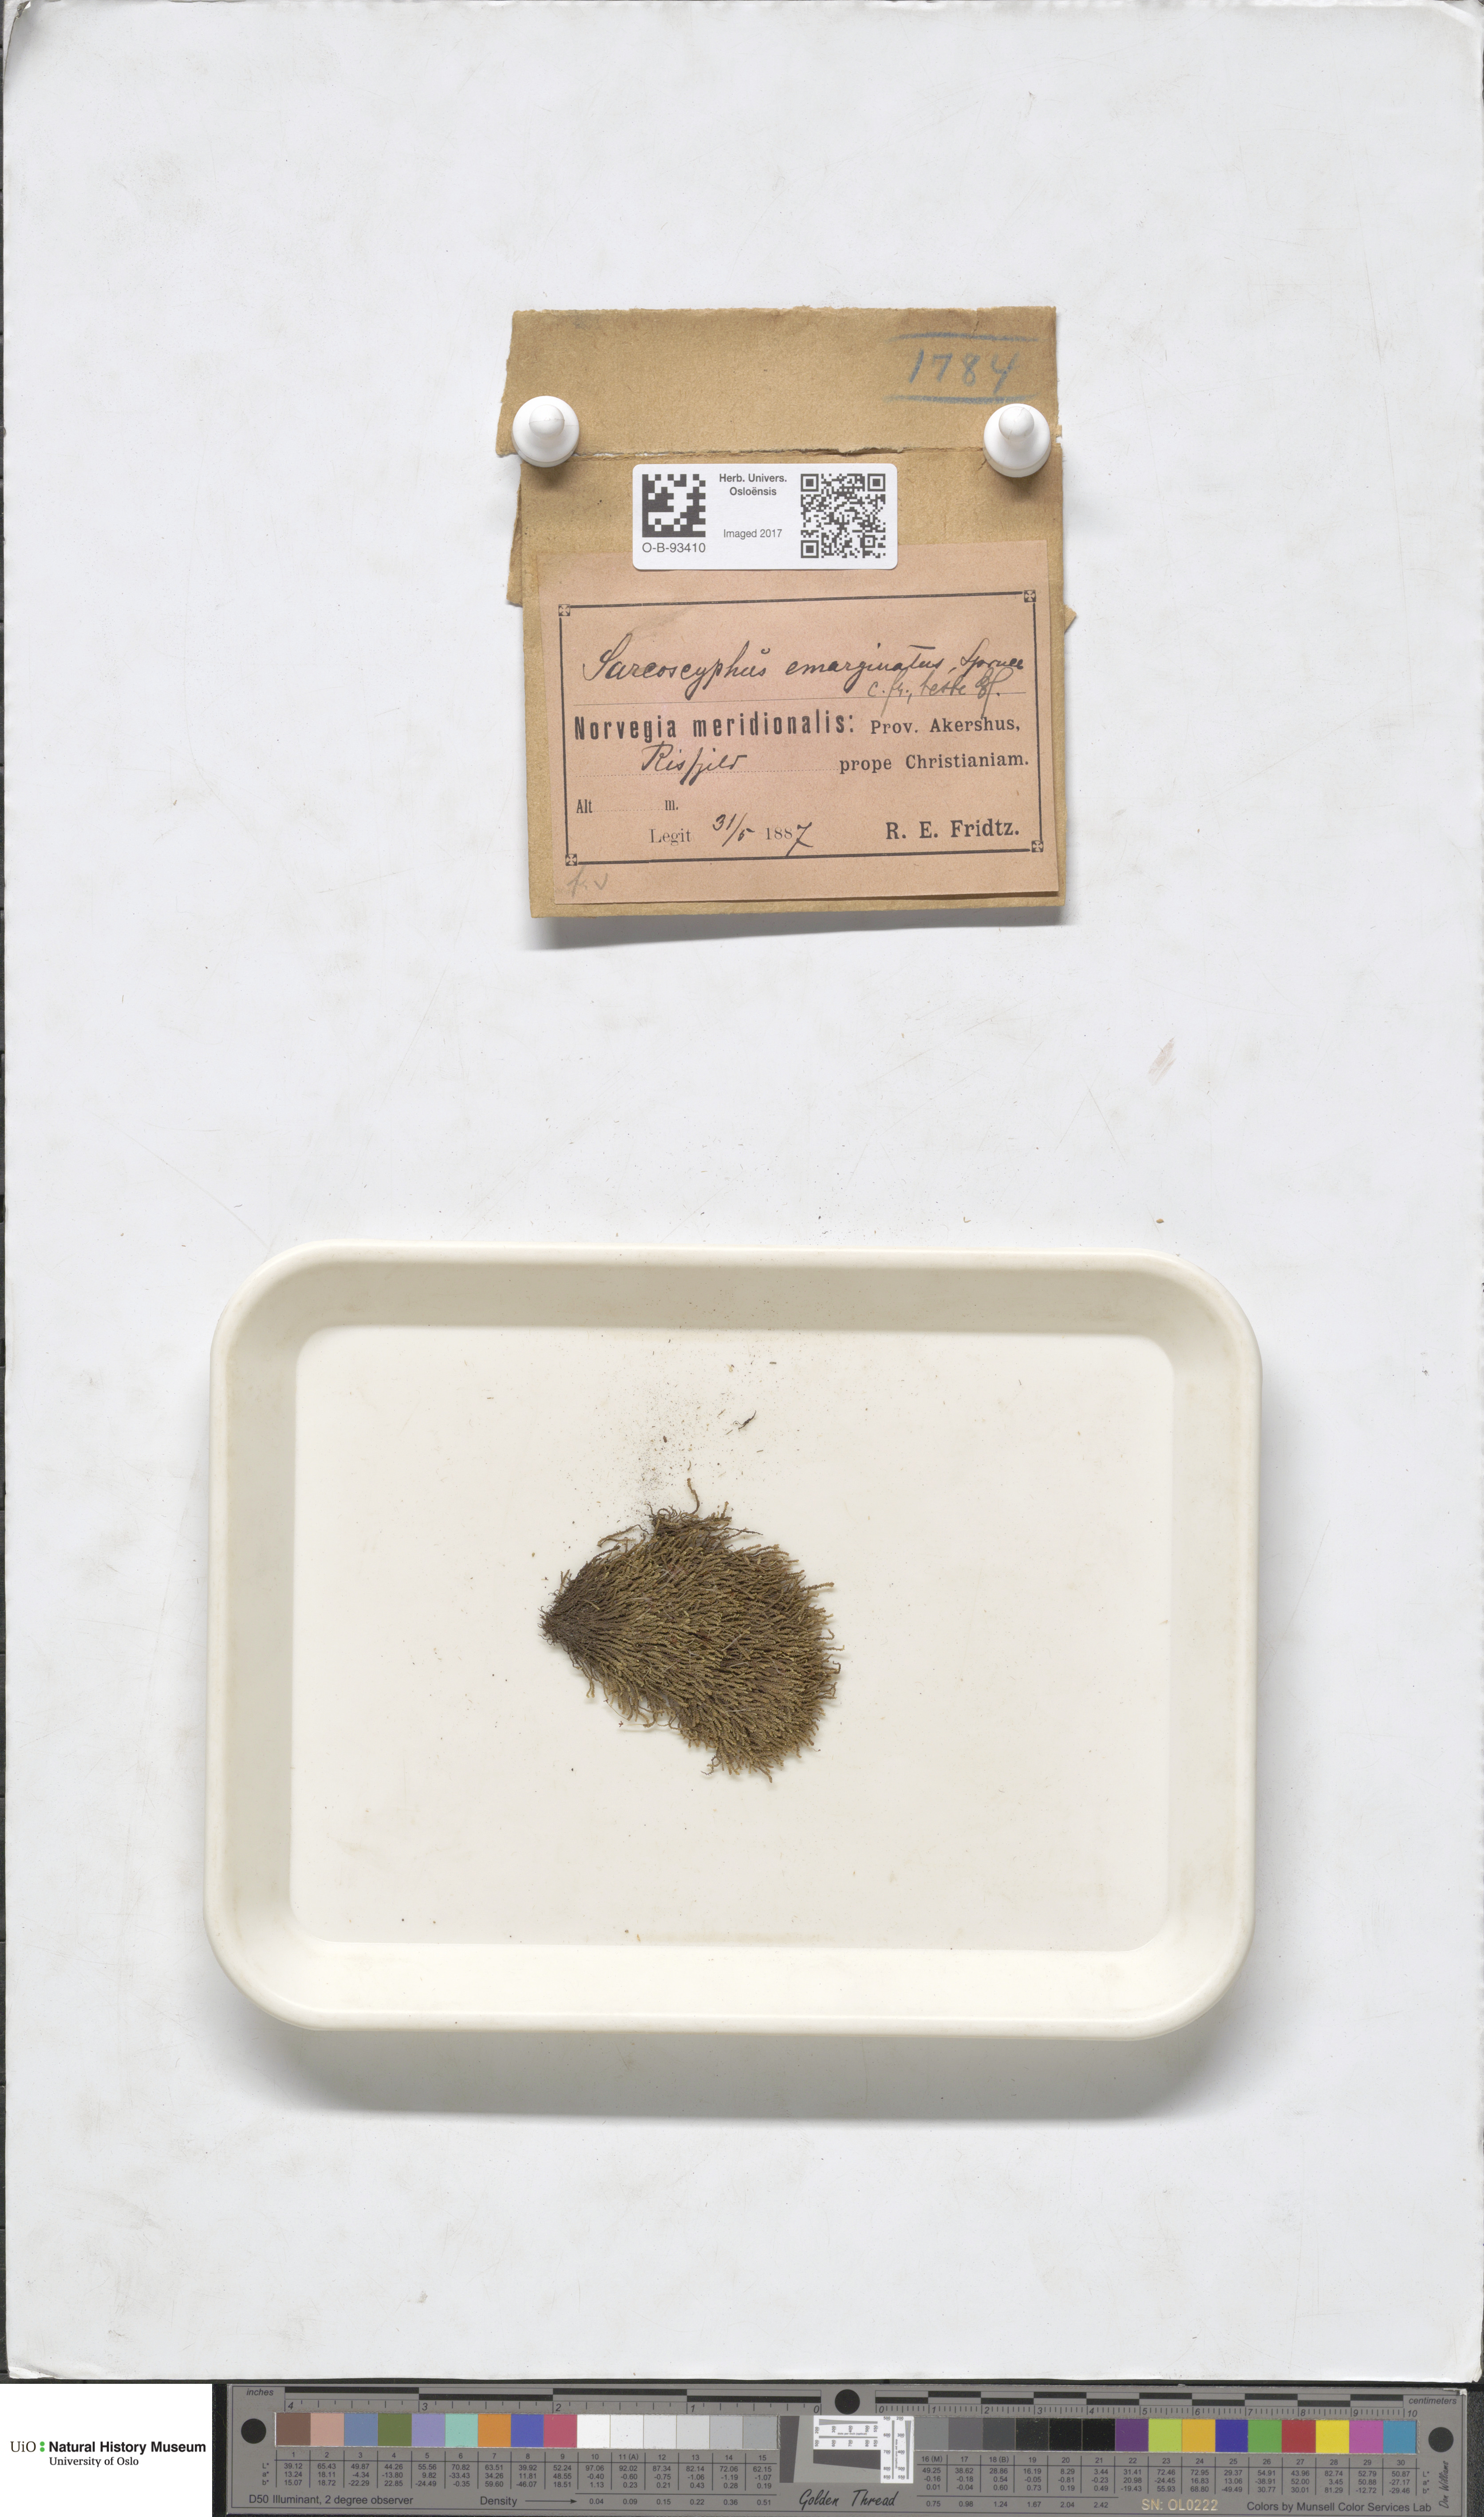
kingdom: Plantae
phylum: Marchantiophyta
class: Jungermanniopsida
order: Jungermanniales
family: Gymnomitriaceae
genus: Gymnomitrion
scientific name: Gymnomitrion brevissimum
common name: Snow rustwort
